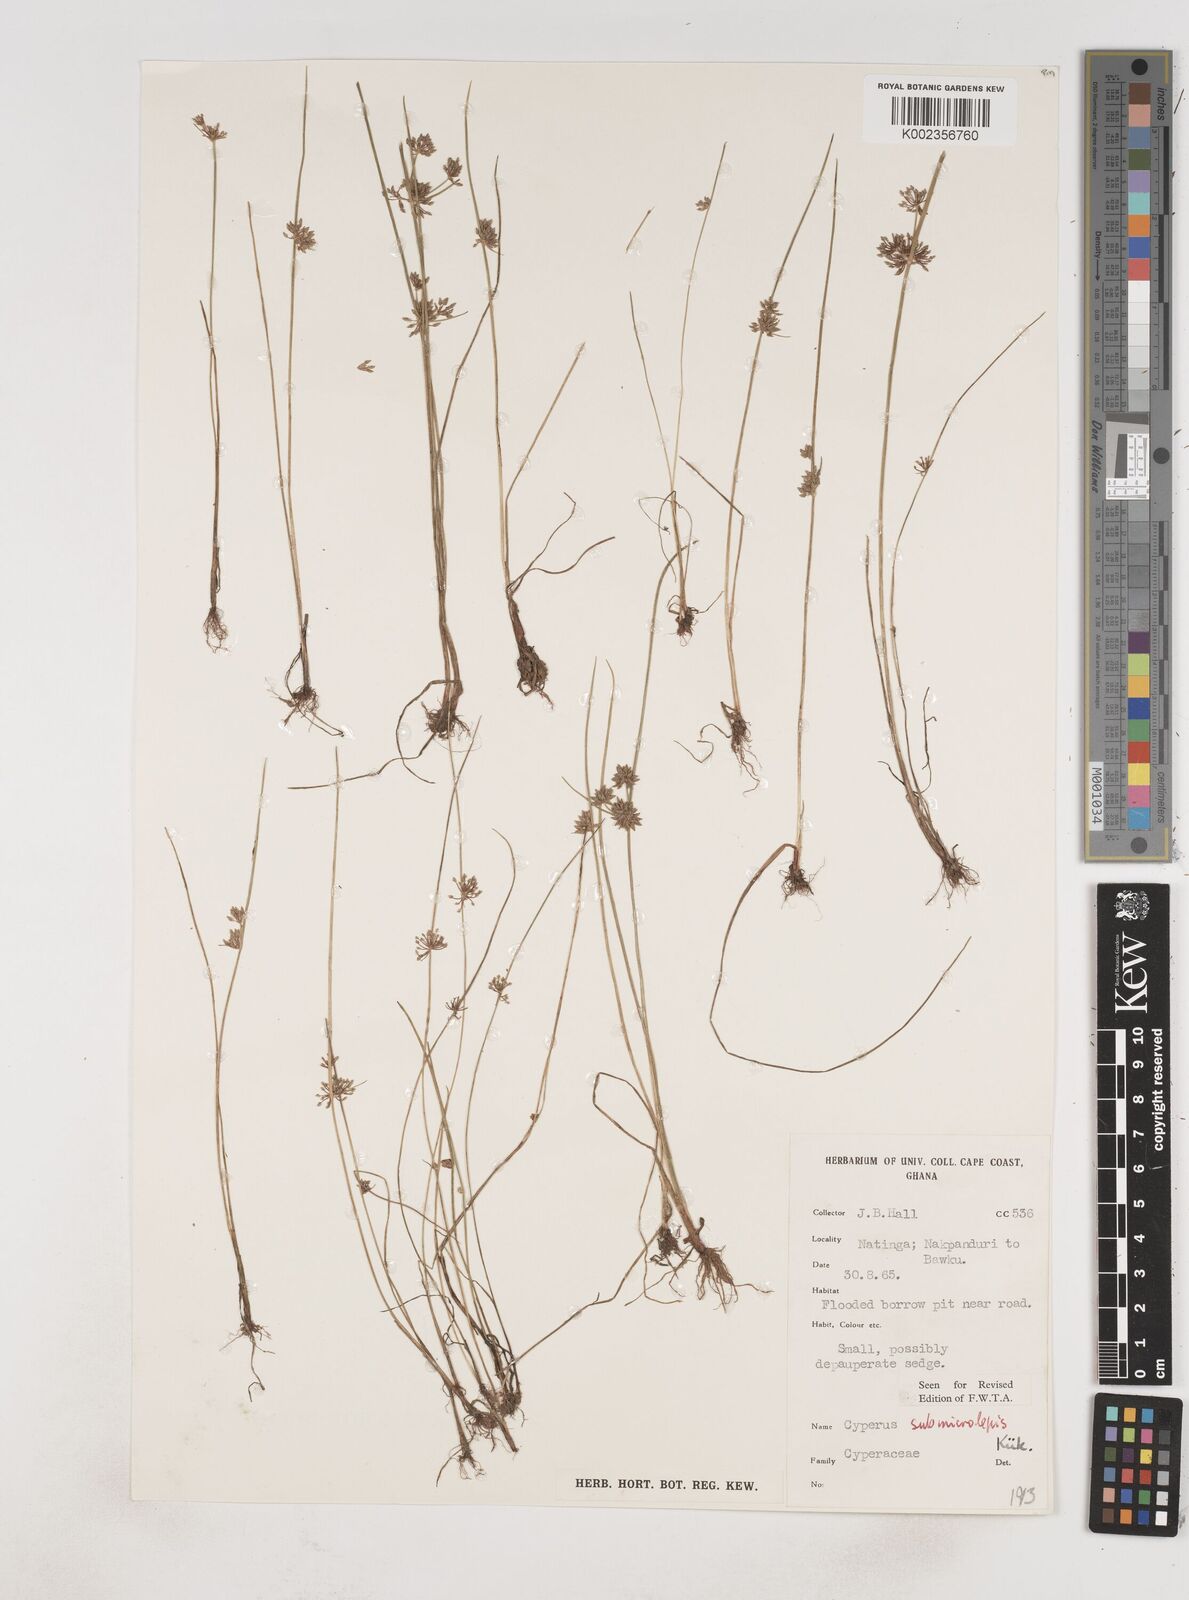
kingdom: Plantae
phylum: Tracheophyta
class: Liliopsida
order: Poales
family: Cyperaceae
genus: Cyperus
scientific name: Cyperus submicrolepis
